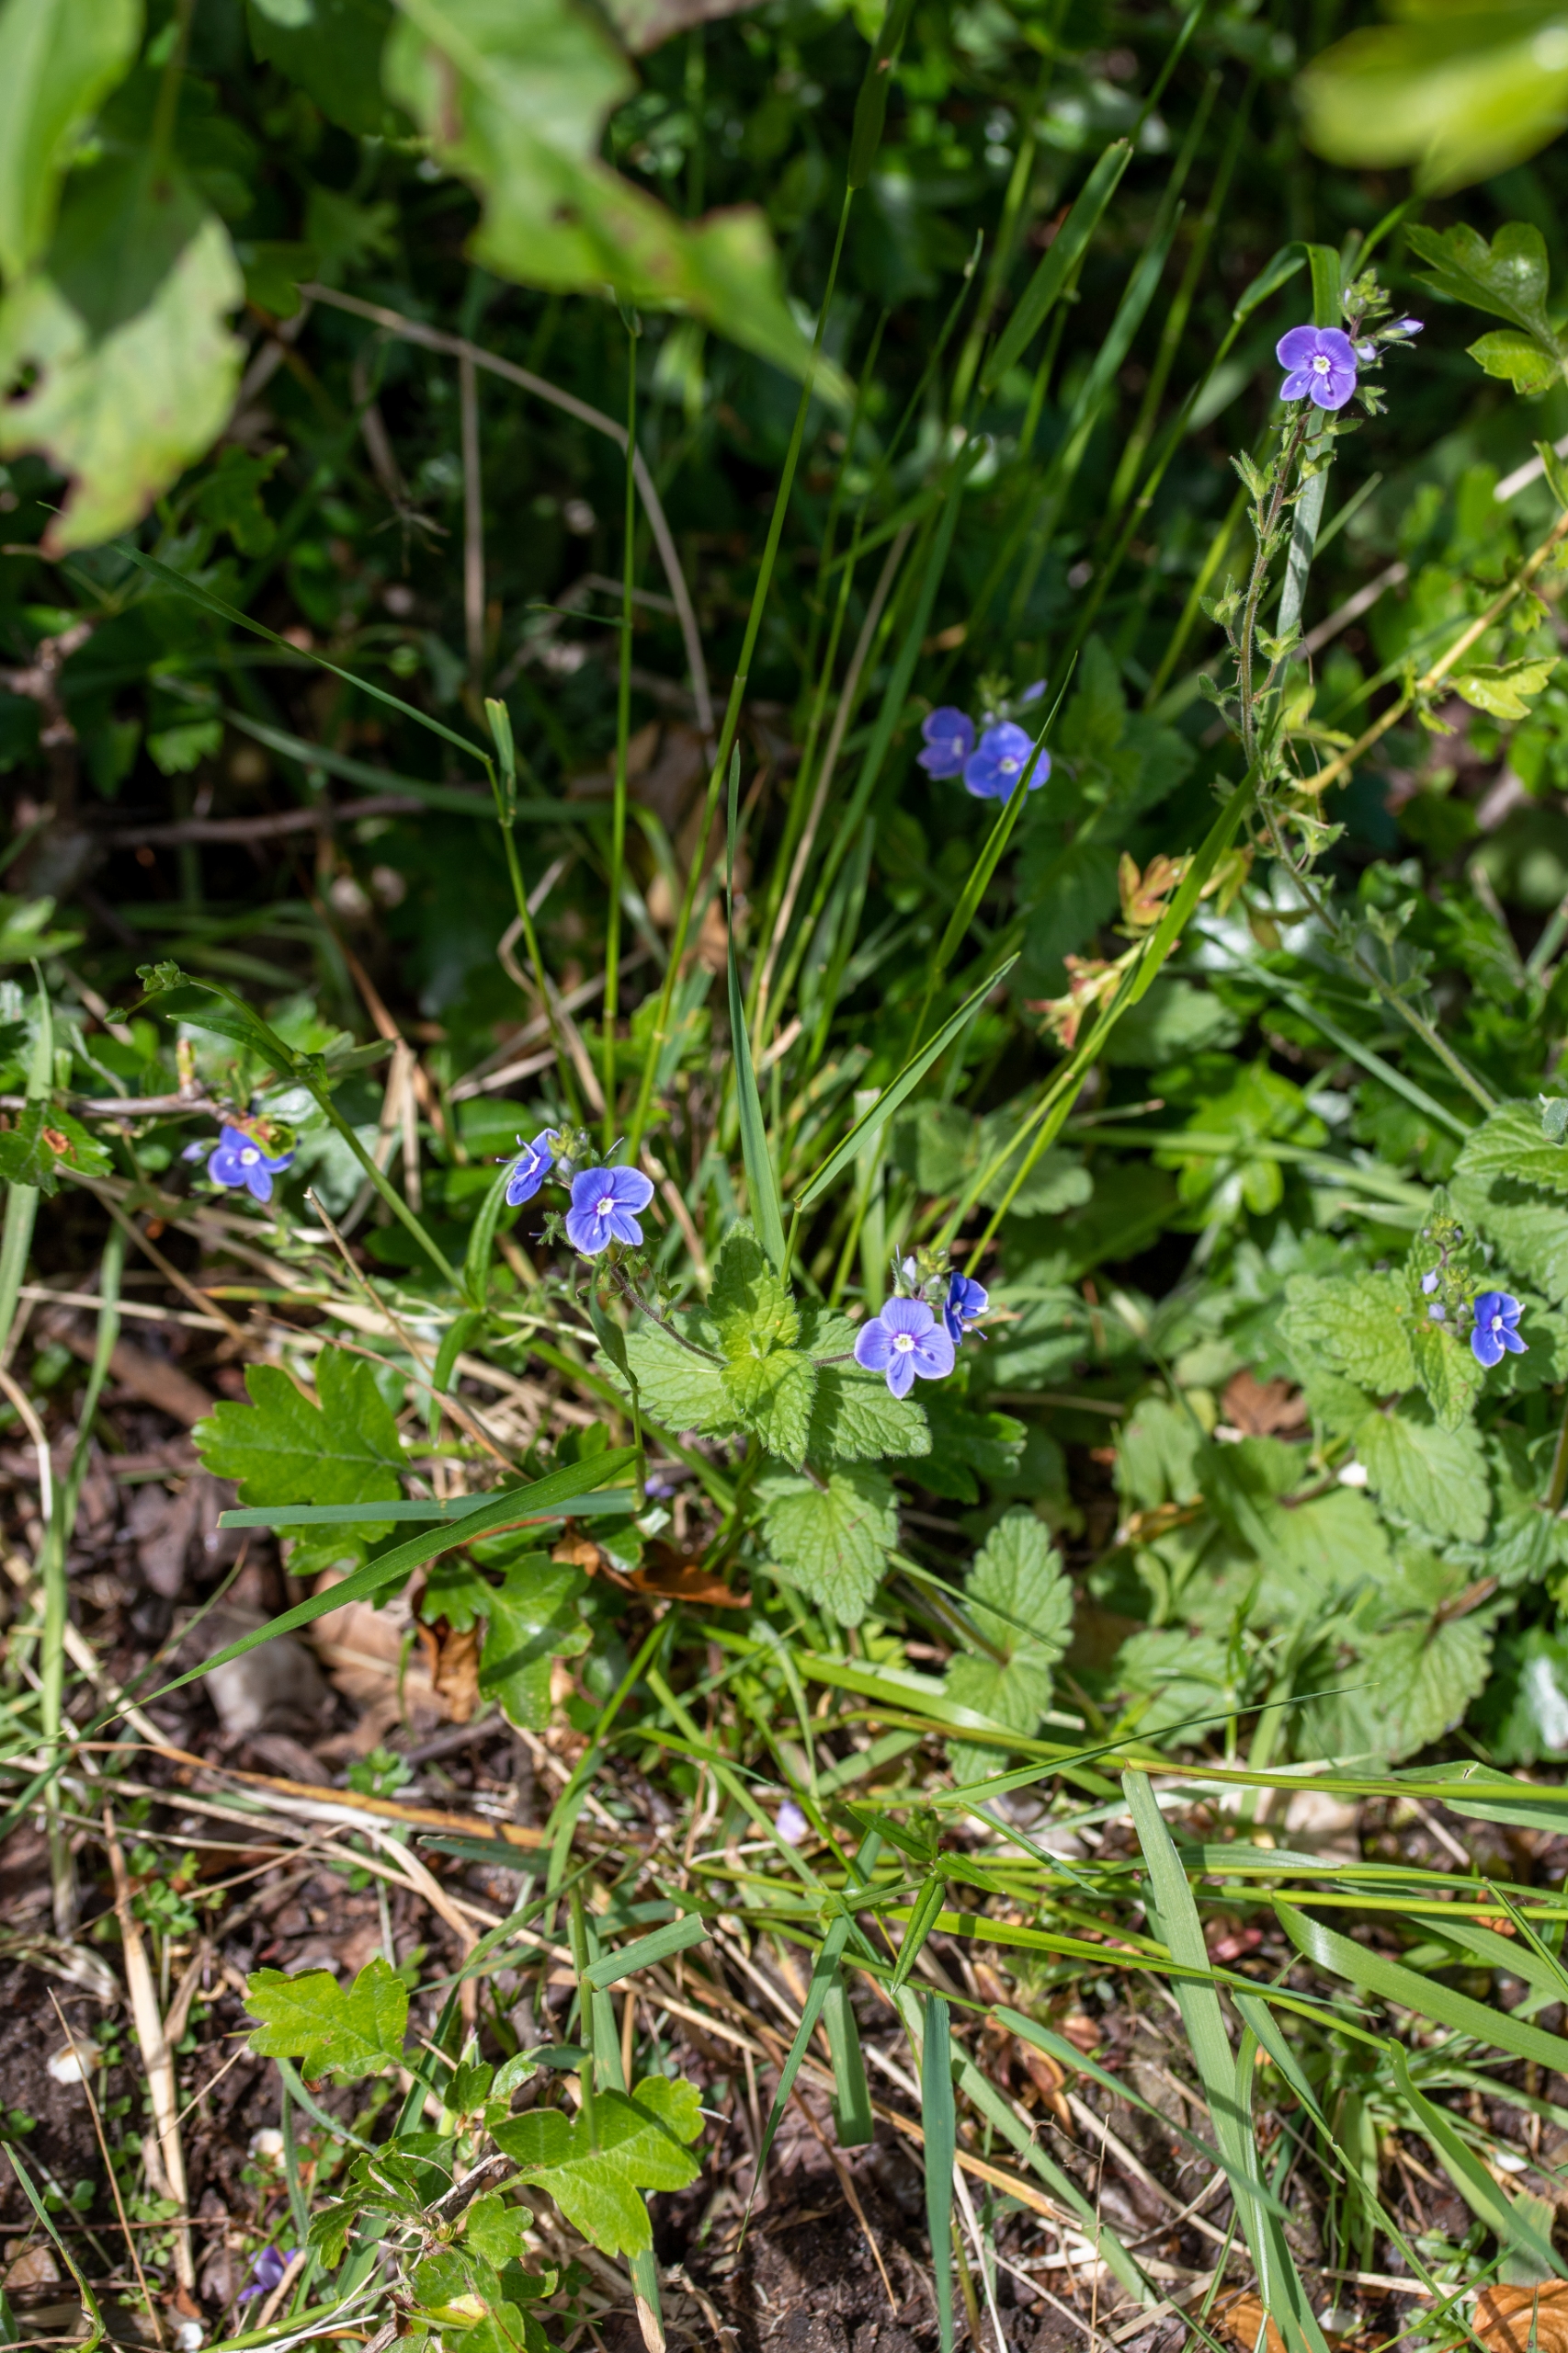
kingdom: Plantae
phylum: Tracheophyta
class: Magnoliopsida
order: Lamiales
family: Plantaginaceae
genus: Veronica
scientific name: Veronica chamaedrys
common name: Tveskægget ærenpris
